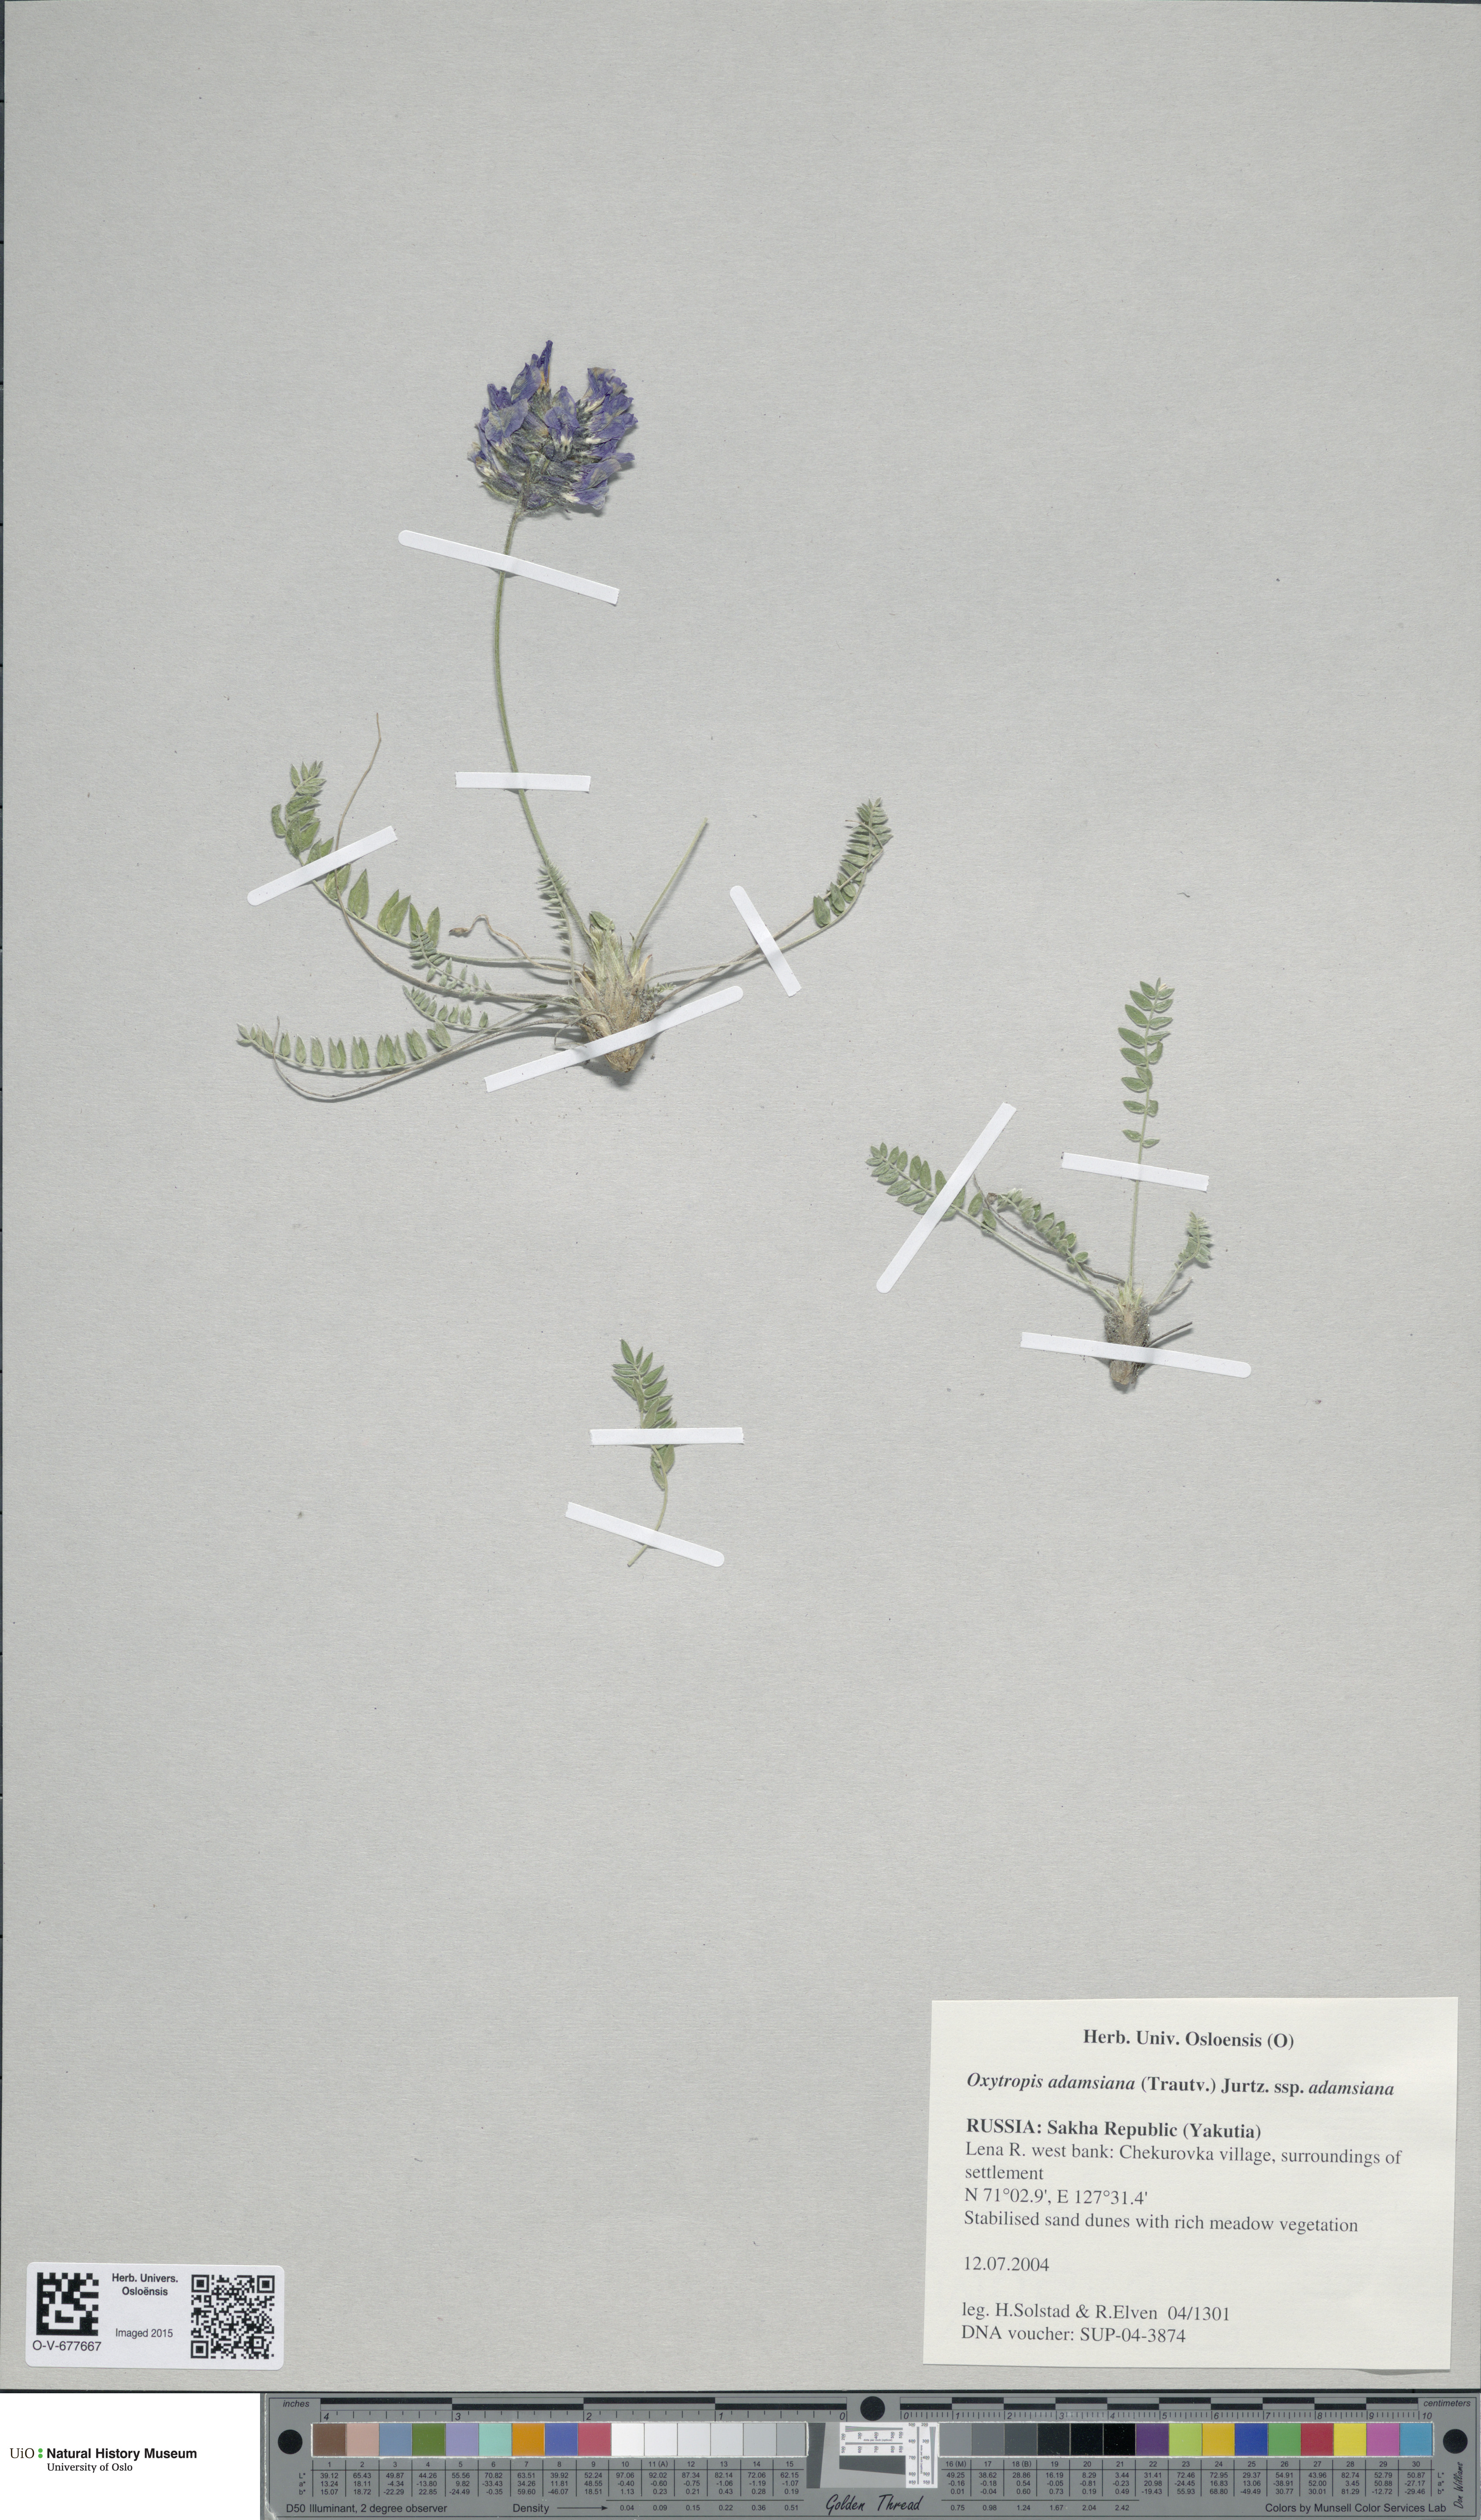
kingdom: Plantae
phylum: Tracheophyta
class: Magnoliopsida
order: Fabales
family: Fabaceae
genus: Oxytropis
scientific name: Oxytropis adamsiana
